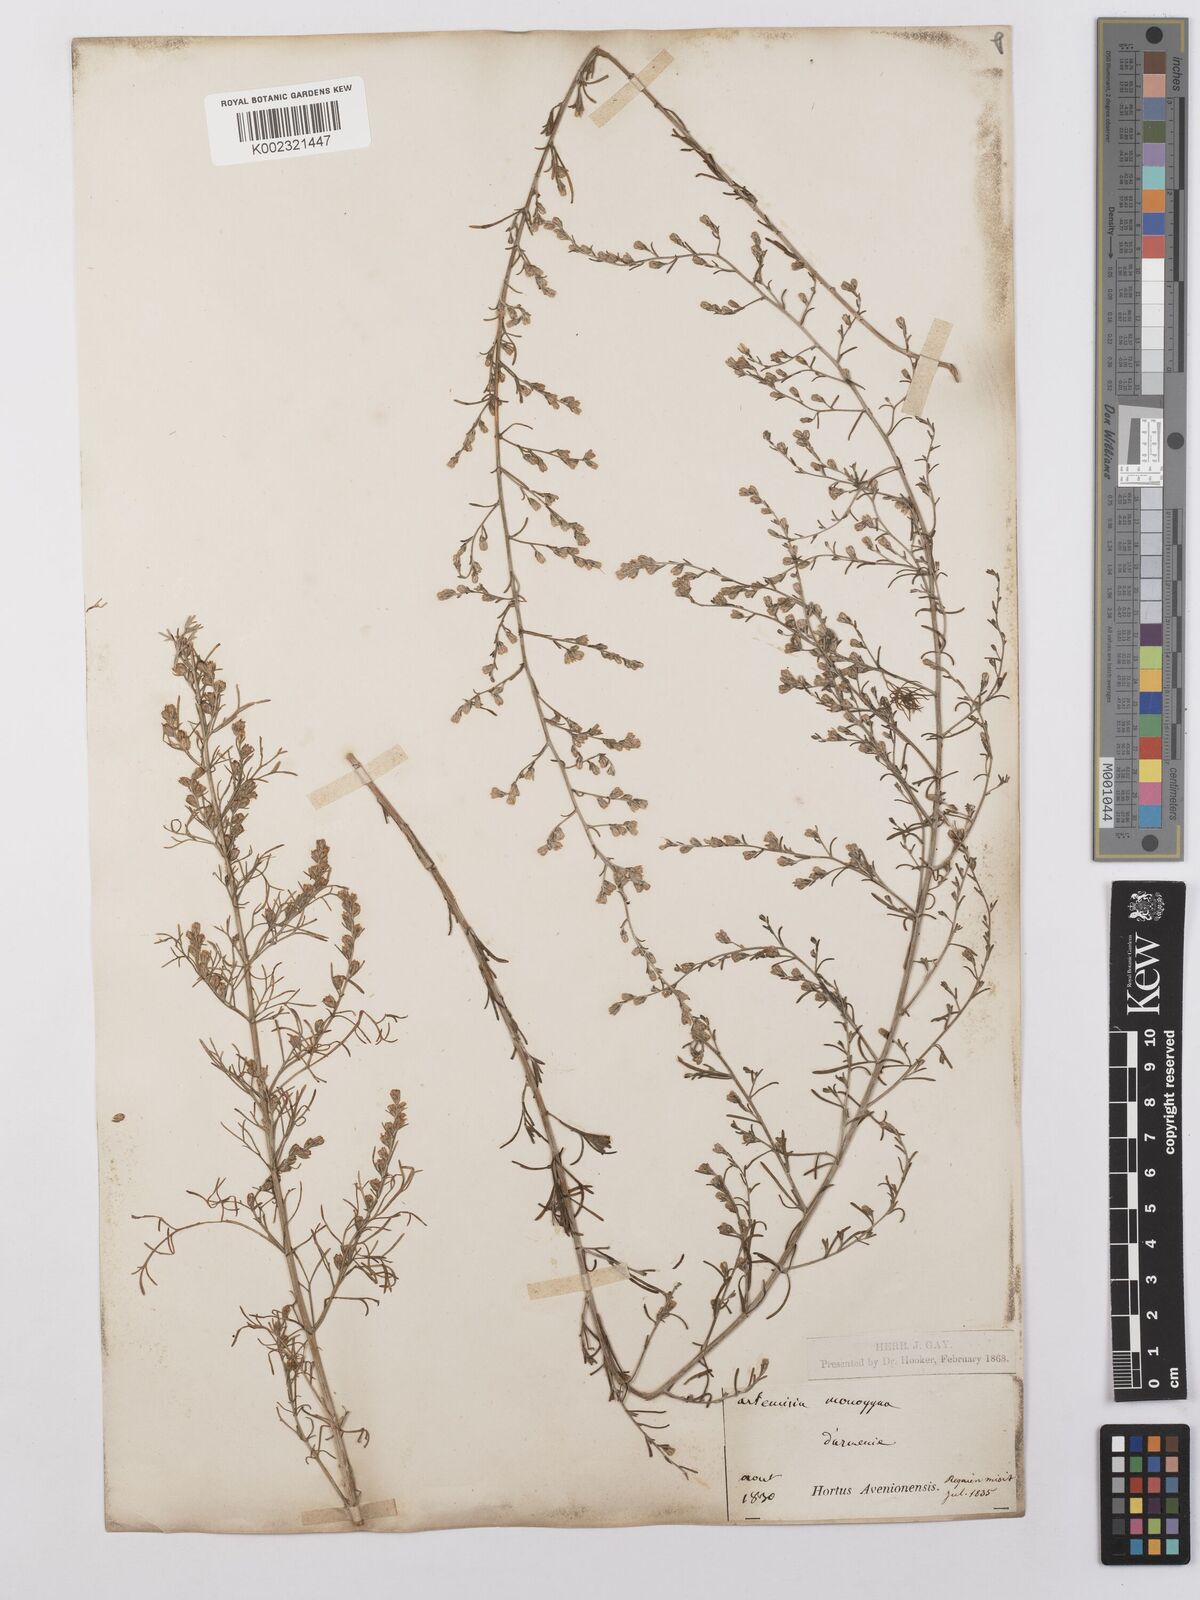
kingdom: Plantae
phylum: Tracheophyta
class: Magnoliopsida
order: Asterales
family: Asteraceae
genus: Artemisia
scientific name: Artemisia santonicum
